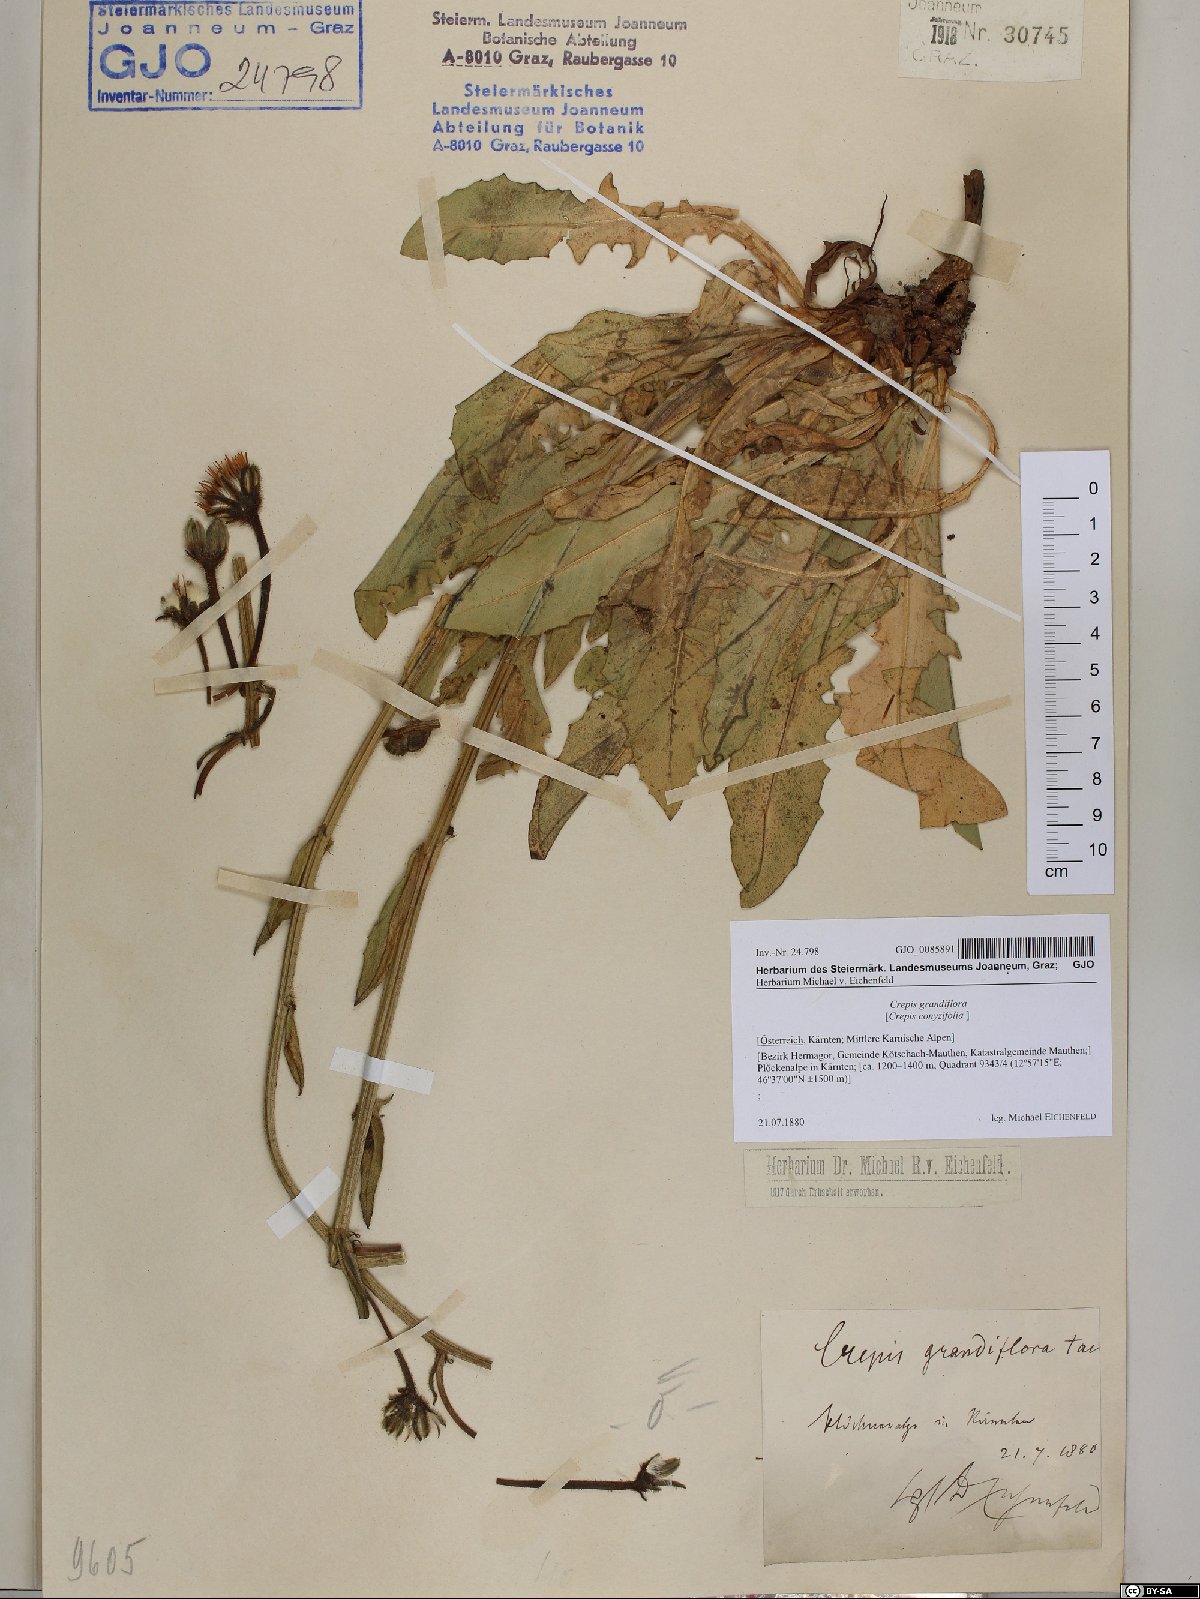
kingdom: Plantae
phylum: Tracheophyta
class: Magnoliopsida
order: Asterales
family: Asteraceae
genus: Crepis
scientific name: Crepis pyrenaica
